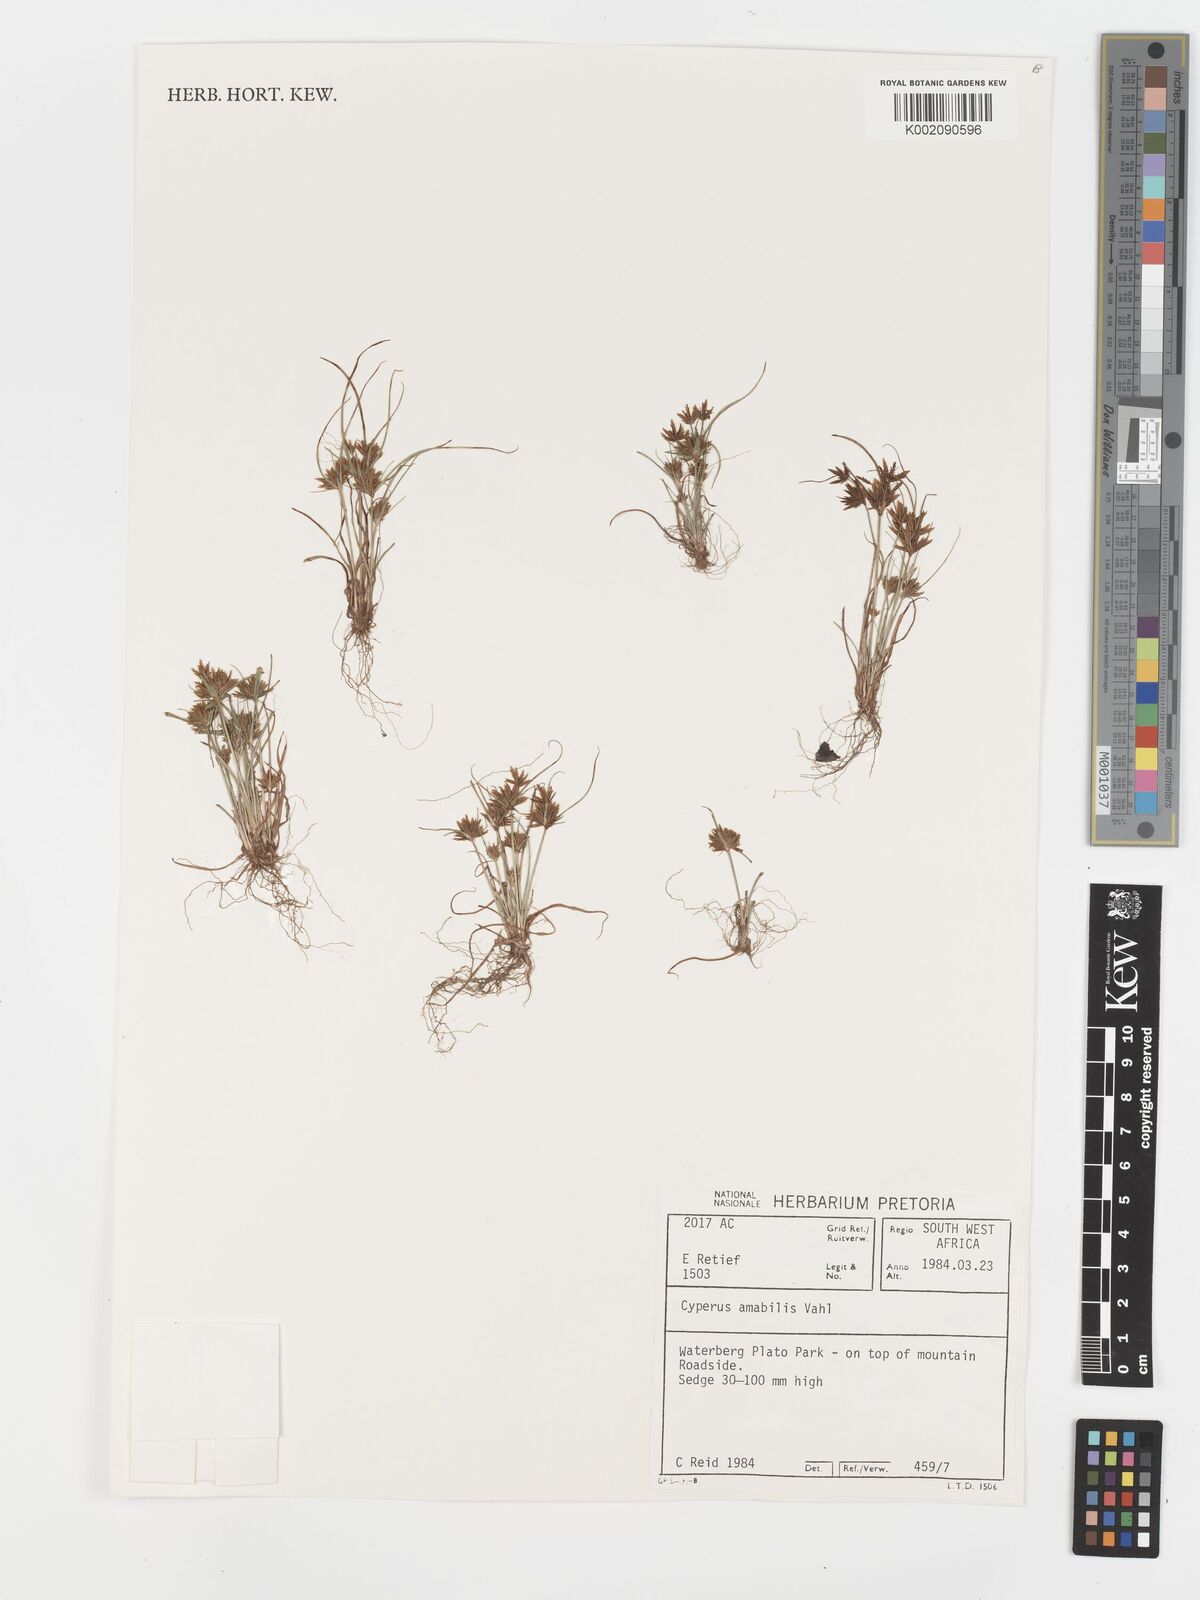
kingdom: Plantae
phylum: Tracheophyta
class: Liliopsida
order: Poales
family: Cyperaceae
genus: Cyperus
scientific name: Cyperus amabilis
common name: Foothill flat sedge
